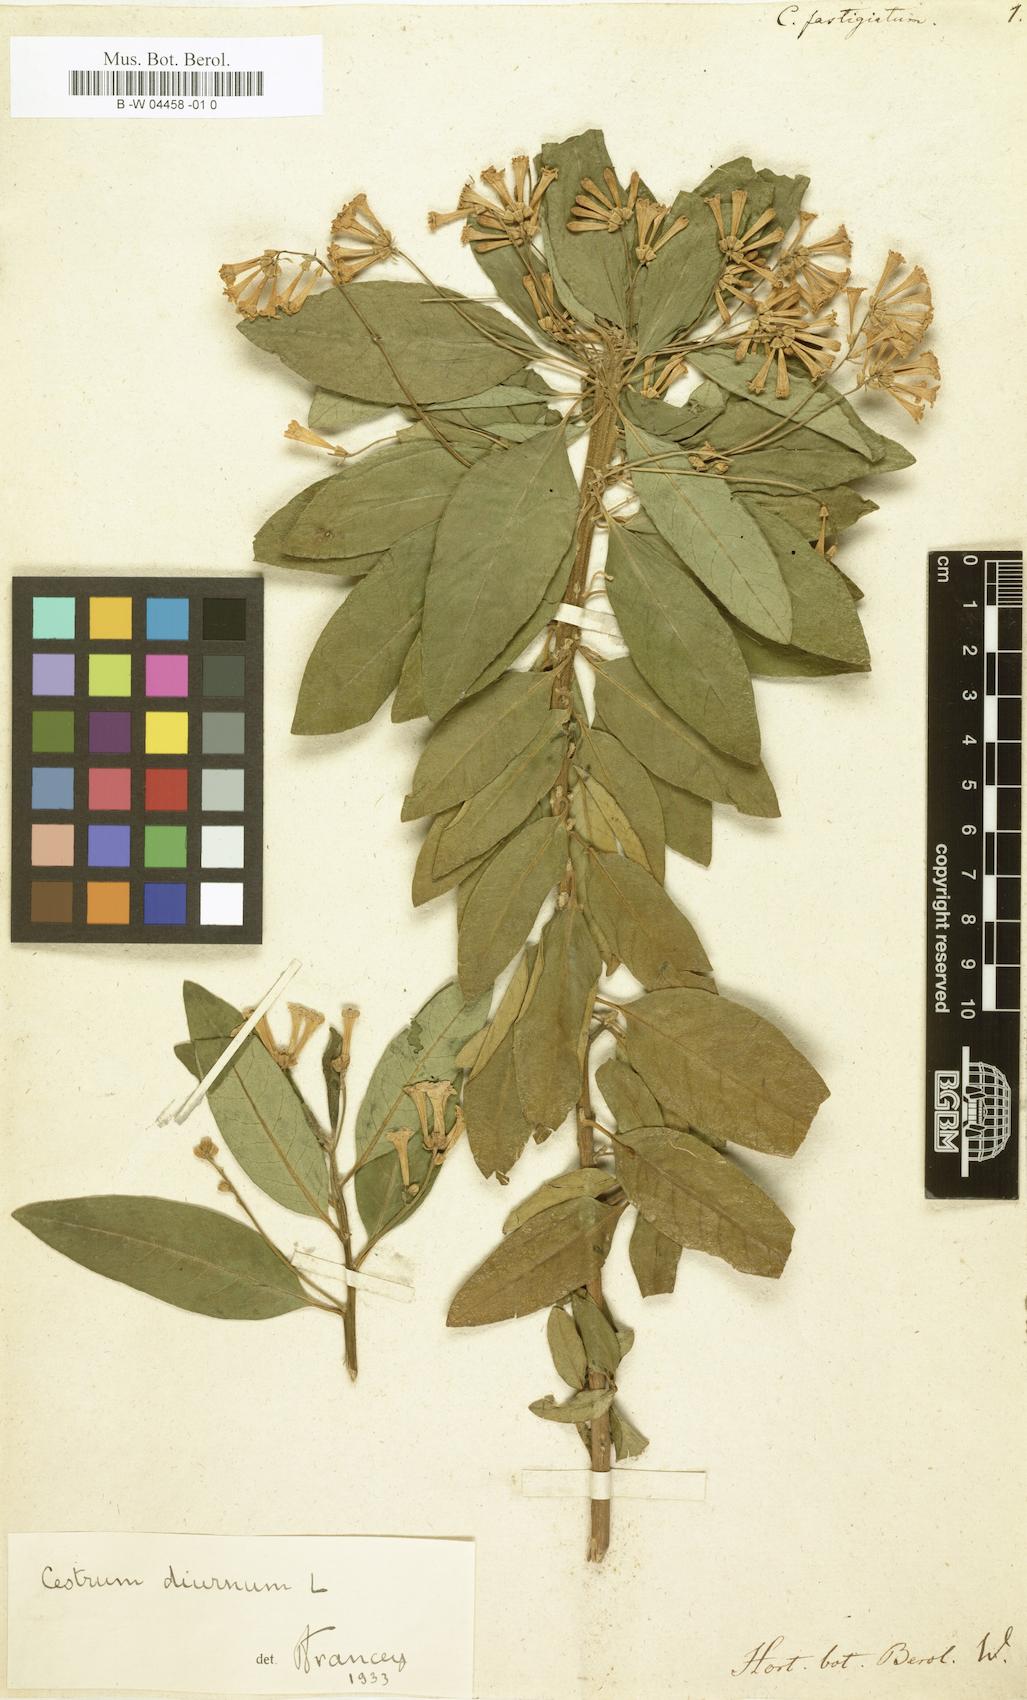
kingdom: Plantae
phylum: Tracheophyta
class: Magnoliopsida
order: Solanales
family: Solanaceae
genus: Cestrum
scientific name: Cestrum diurnum
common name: Day jessamine
